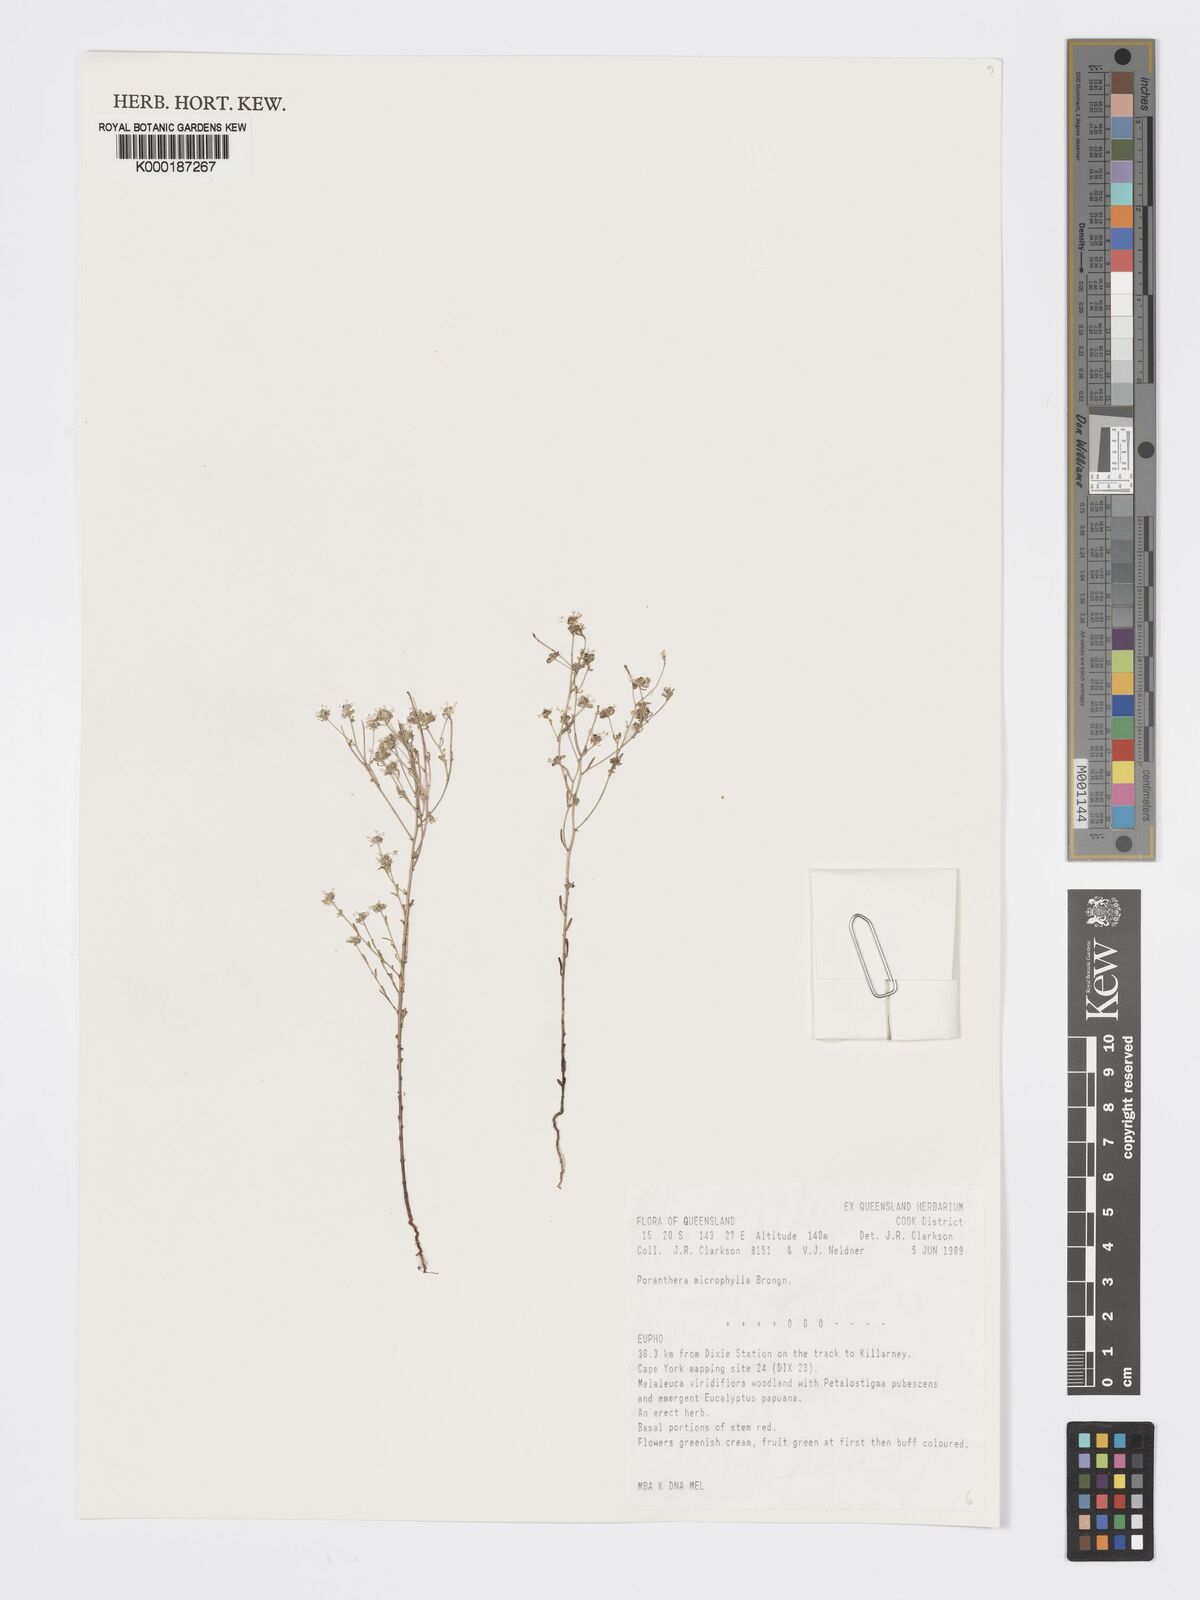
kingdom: Plantae
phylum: Tracheophyta
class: Magnoliopsida
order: Malpighiales
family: Phyllanthaceae
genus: Poranthera
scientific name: Poranthera microphylla
